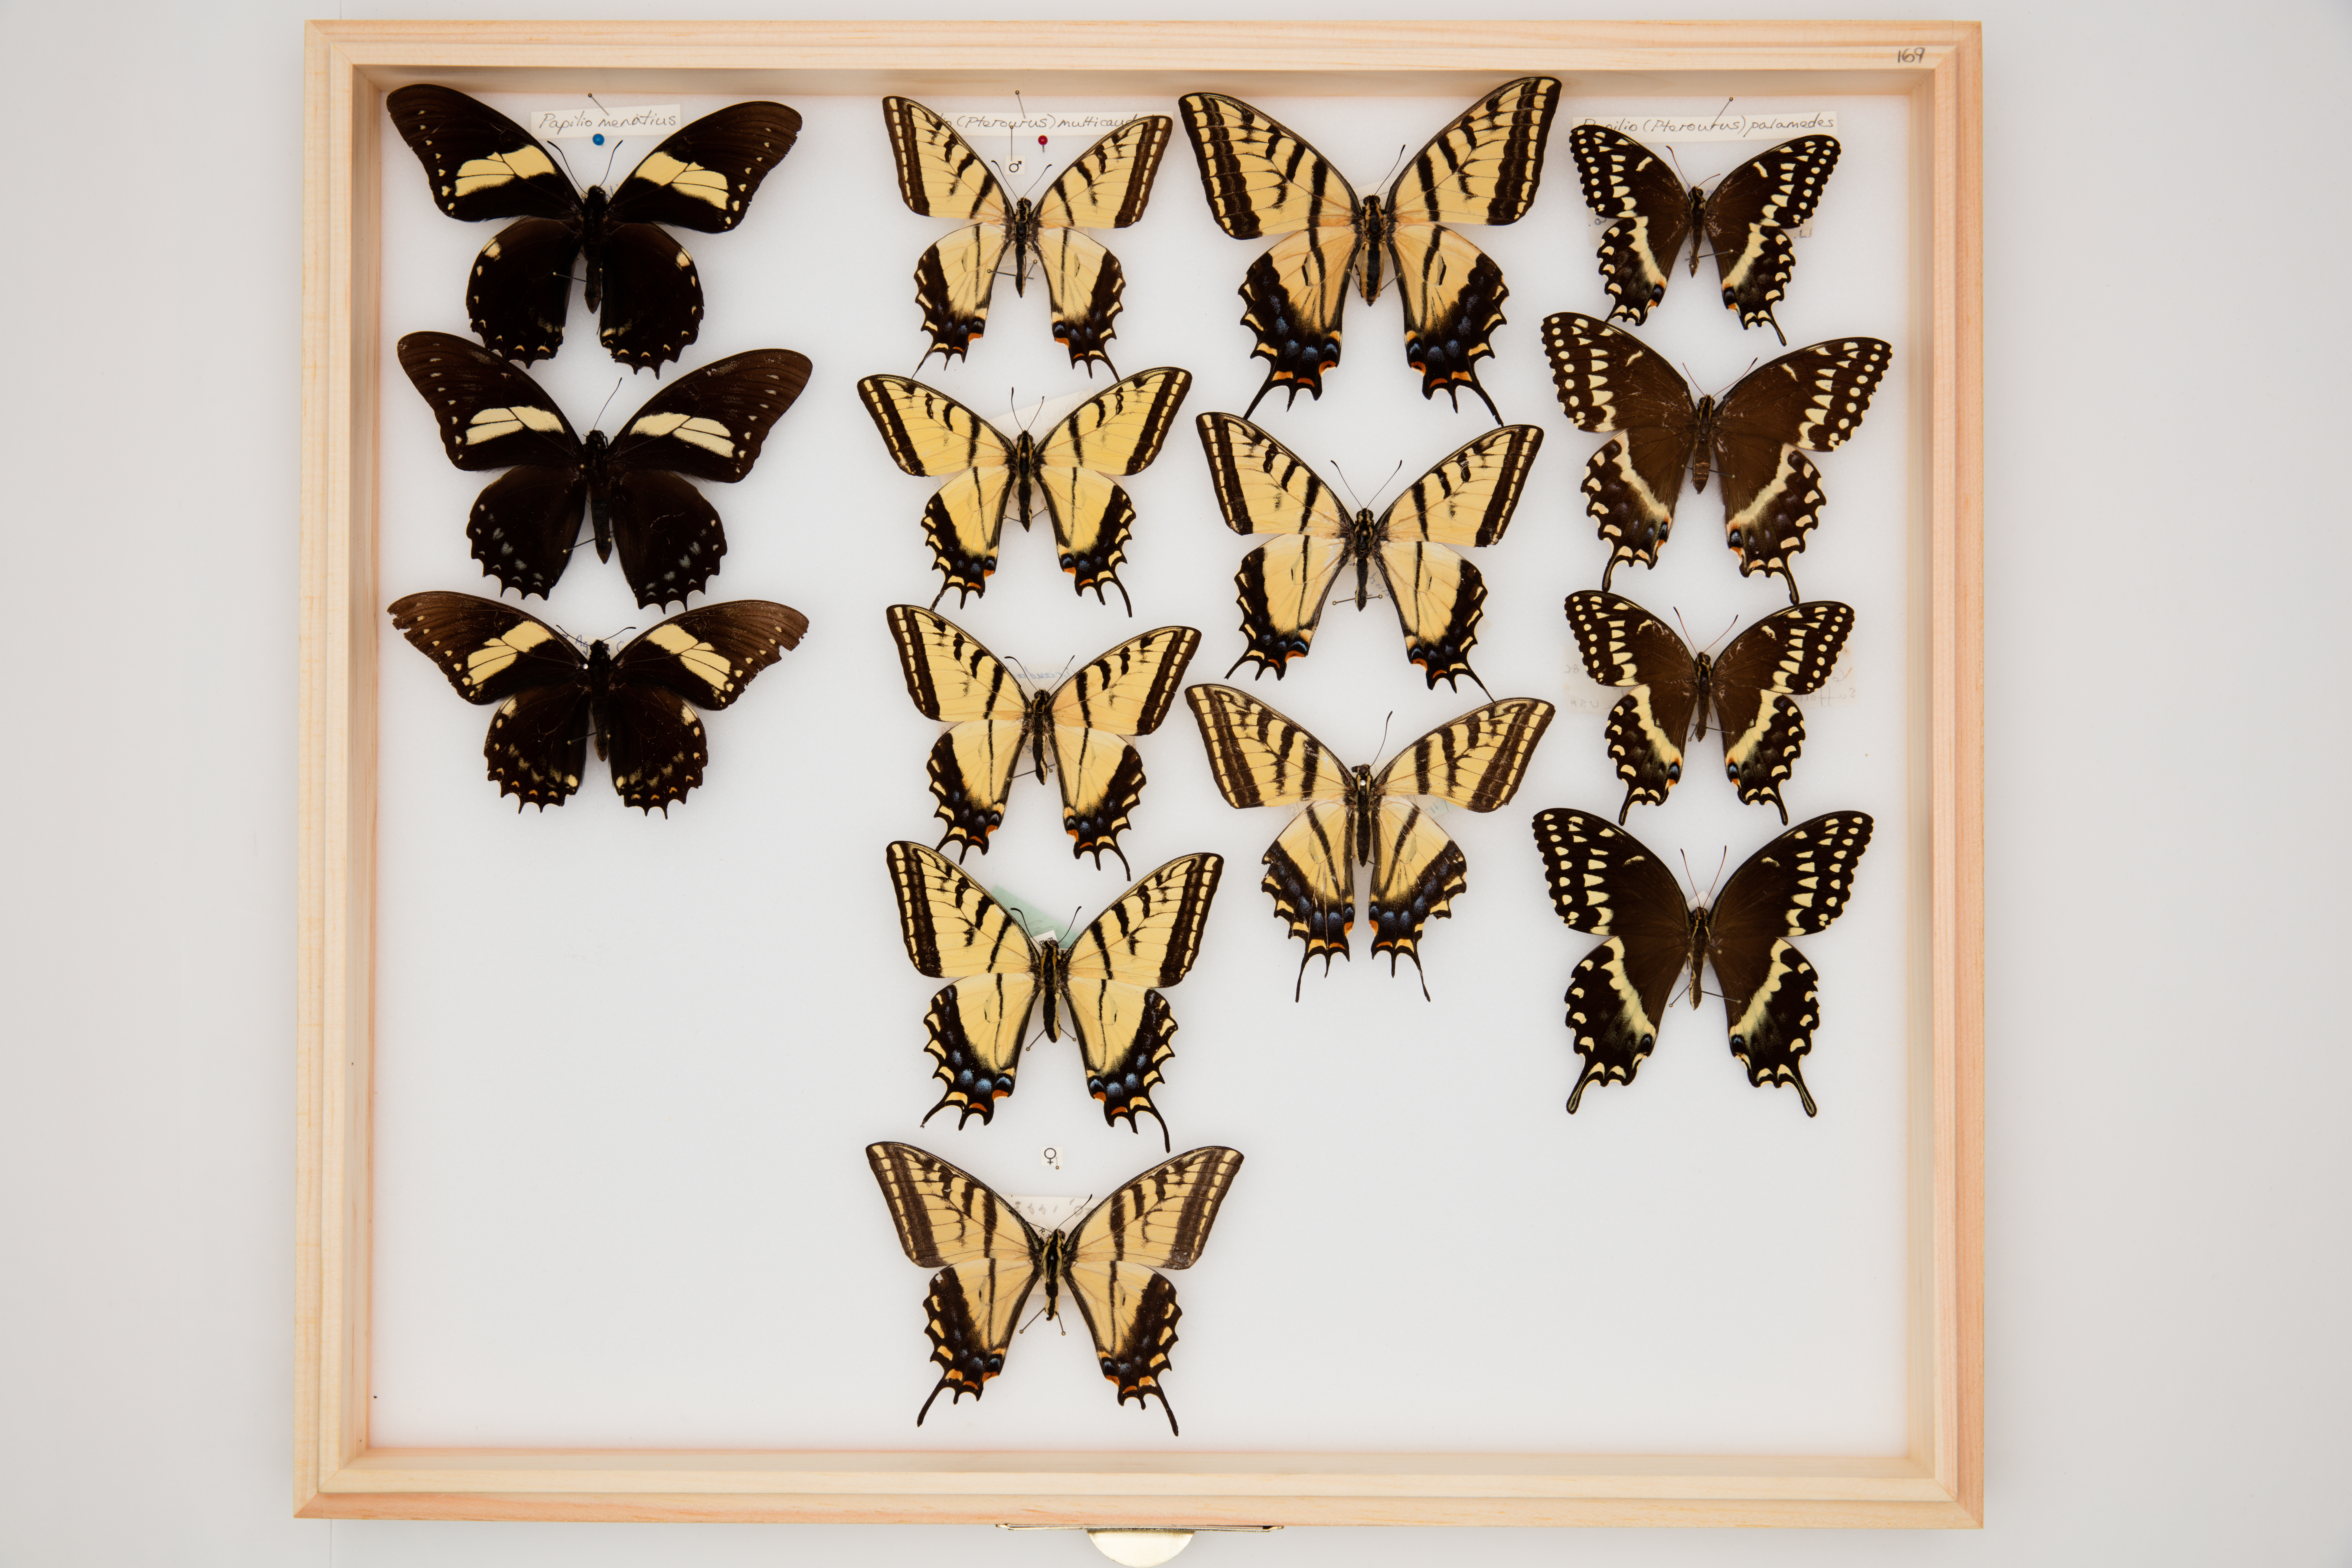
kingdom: Animalia
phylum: Arthropoda
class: Insecta
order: Lepidoptera
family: Papilionidae
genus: Papilio
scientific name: Papilio multicaudata
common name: Two-tailed tiger swallowtail
